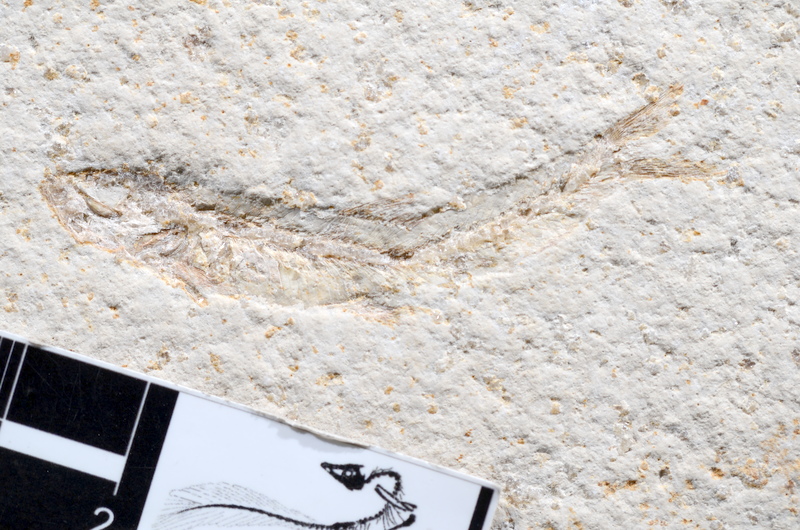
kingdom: Animalia
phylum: Chordata
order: Salmoniformes
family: Orthogonikleithridae
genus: Leptolepides
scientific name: Leptolepides sprattiformis
